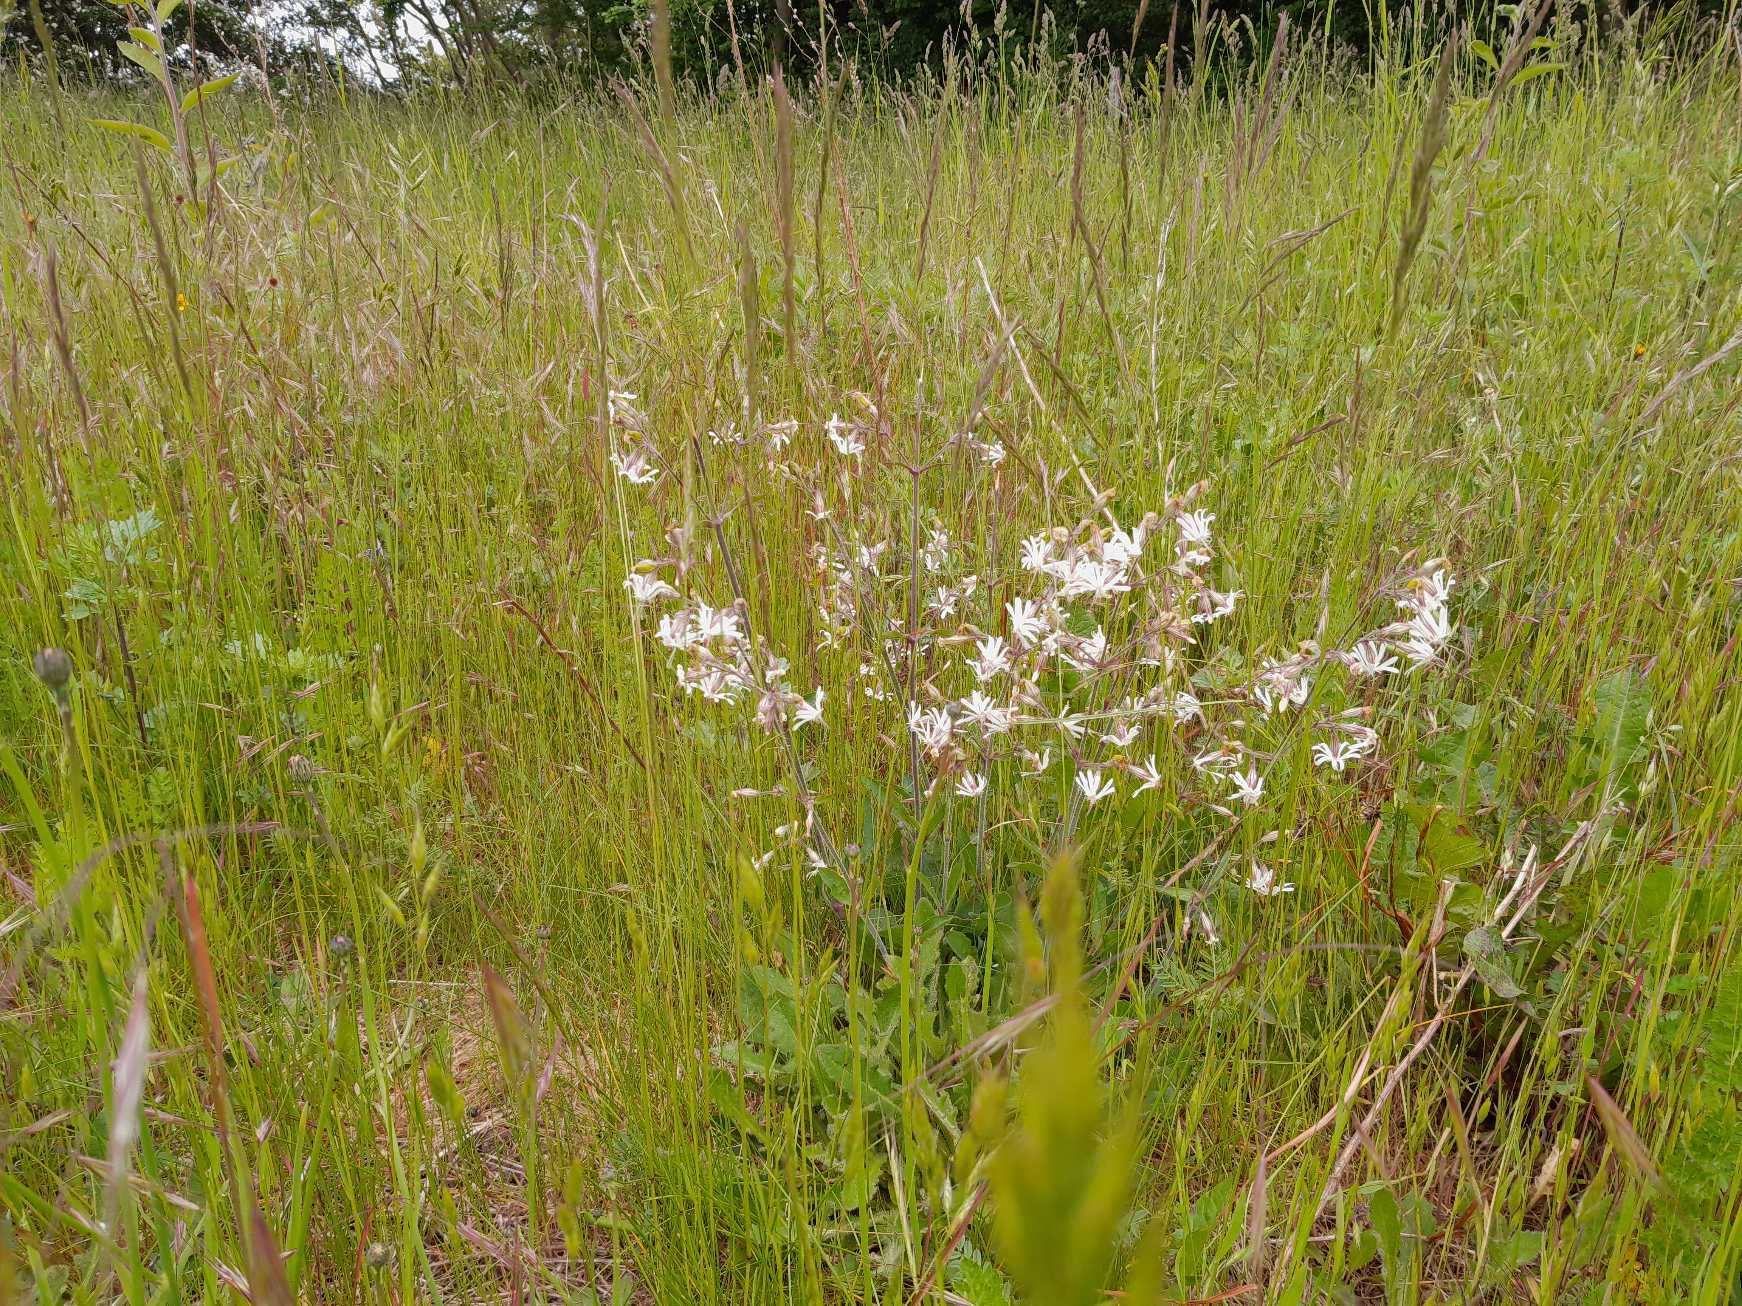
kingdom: Plantae
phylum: Tracheophyta
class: Magnoliopsida
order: Caryophyllales
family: Caryophyllaceae
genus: Silene
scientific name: Silene nutans
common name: Nikkende limurt
